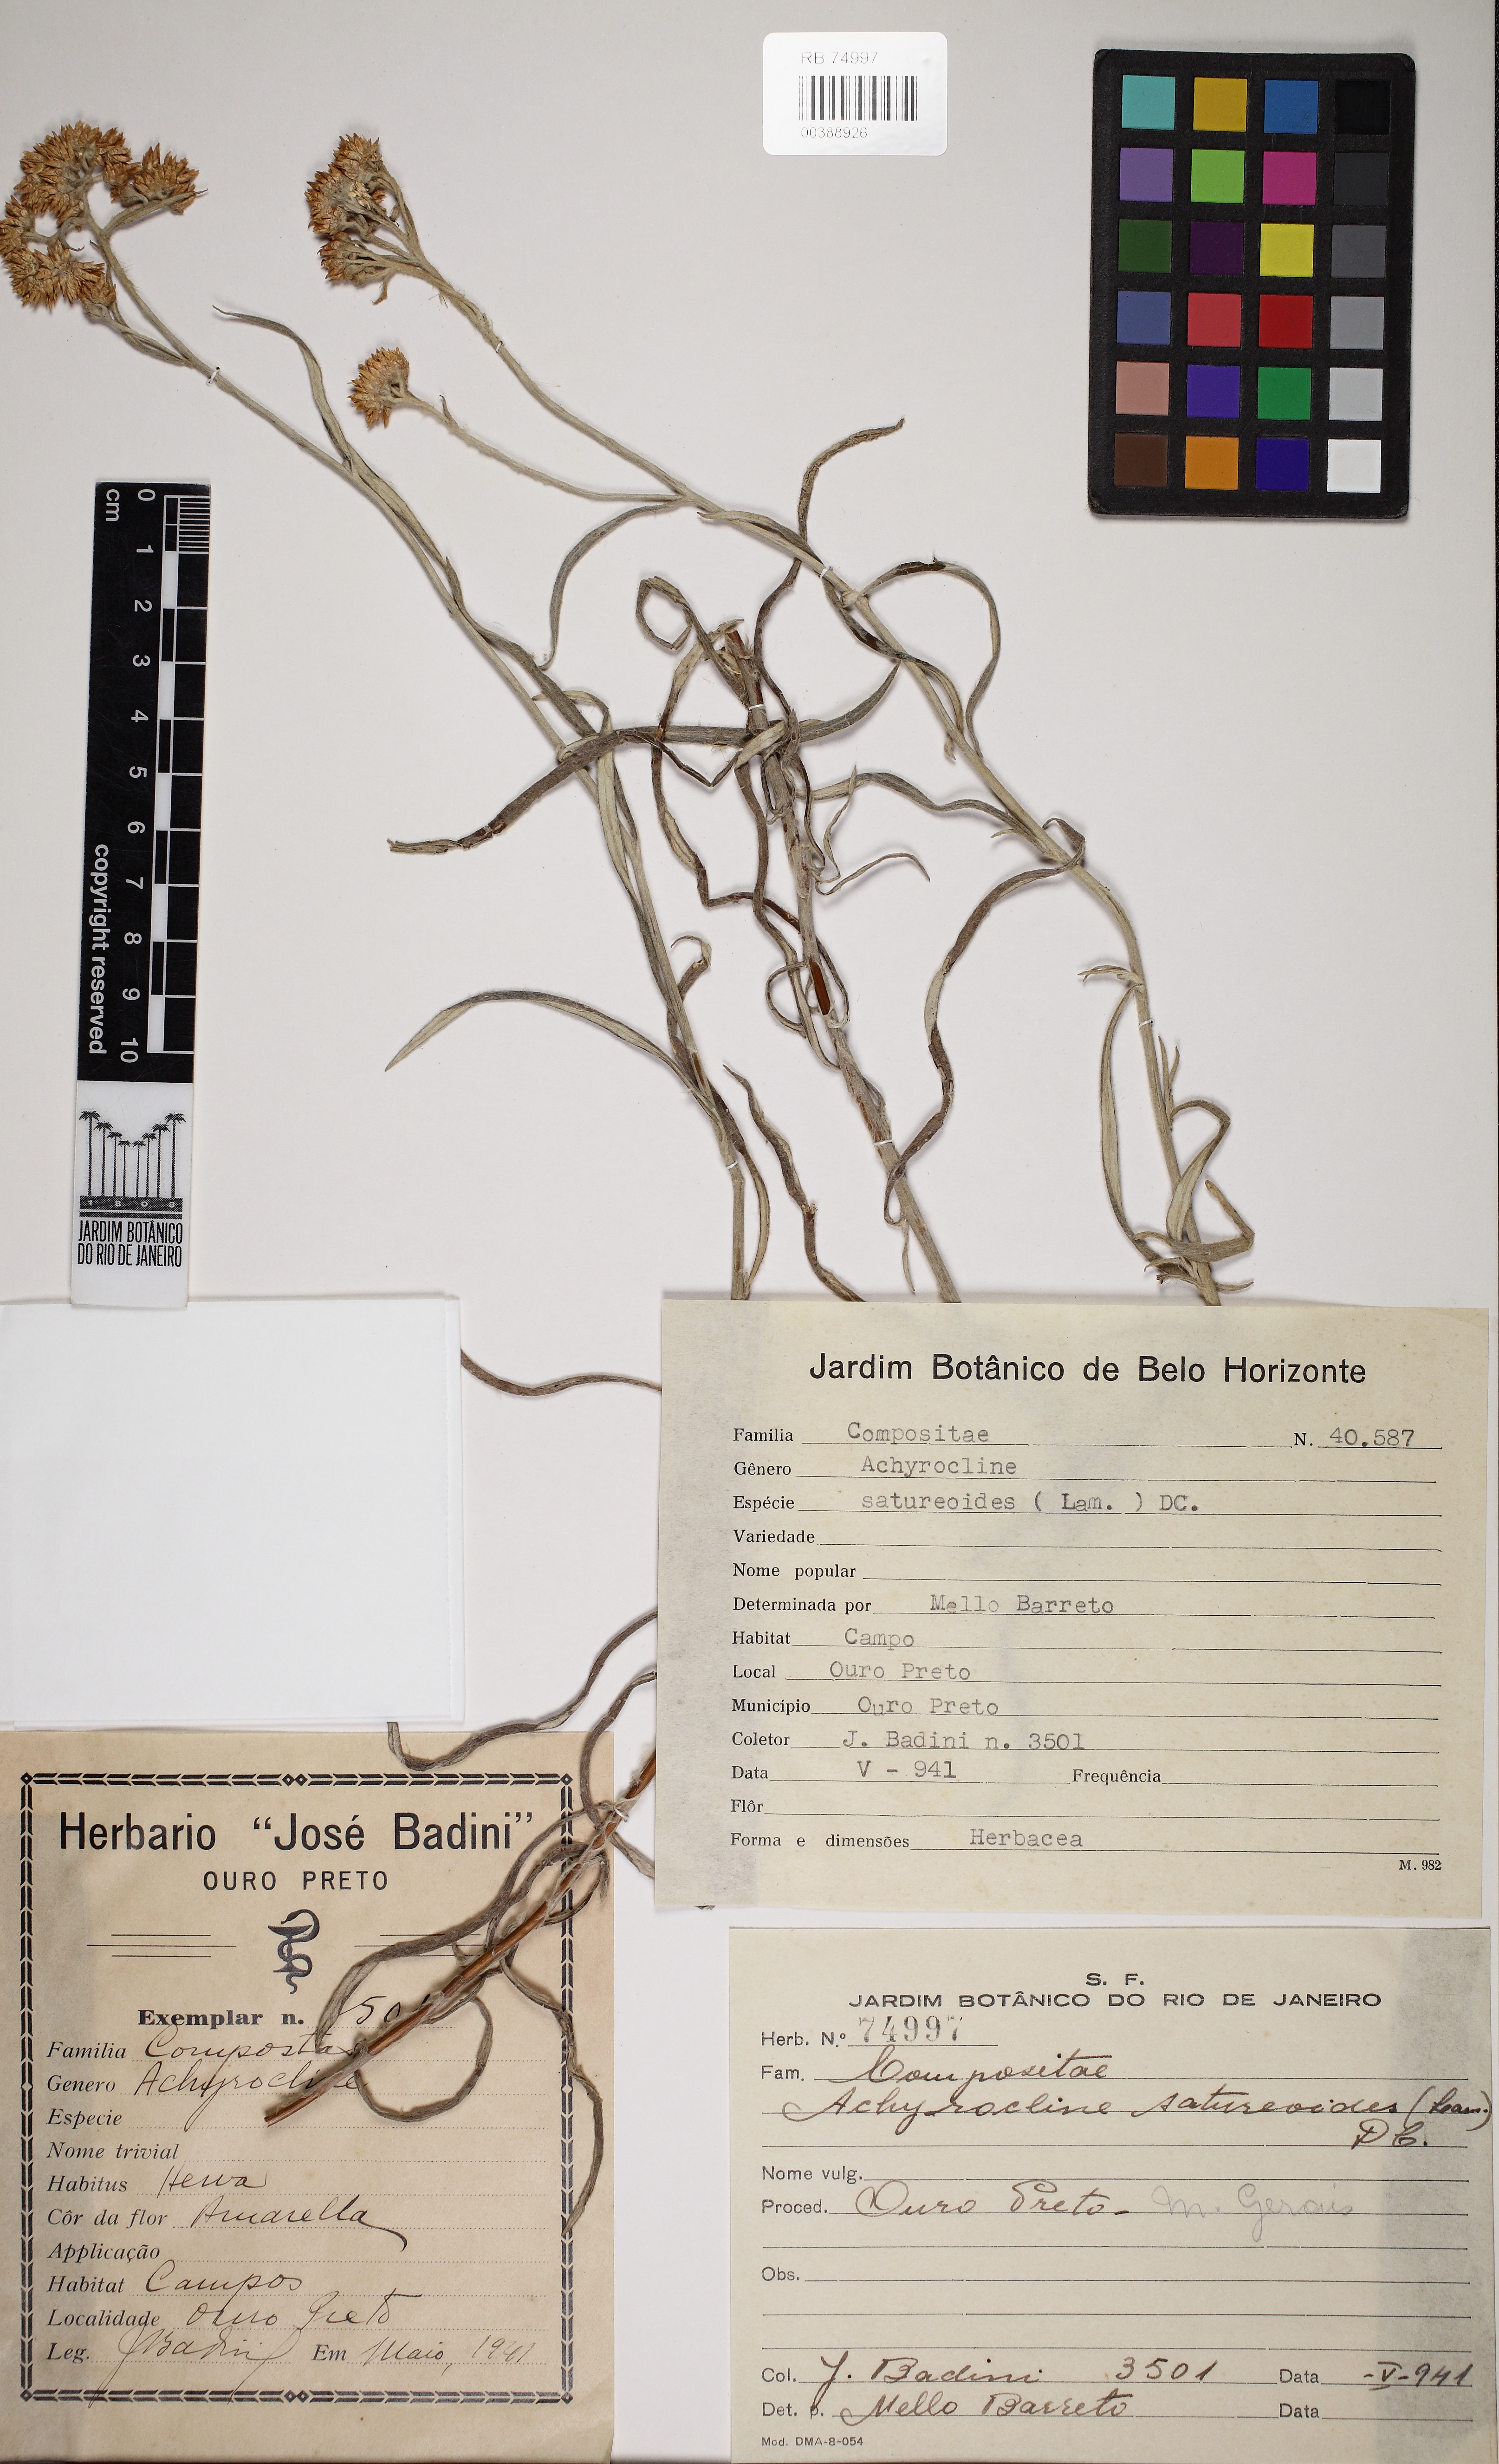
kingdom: Plantae
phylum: Tracheophyta
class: Magnoliopsida
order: Asterales
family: Asteraceae
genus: Achyrocline
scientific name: Achyrocline satureioides
